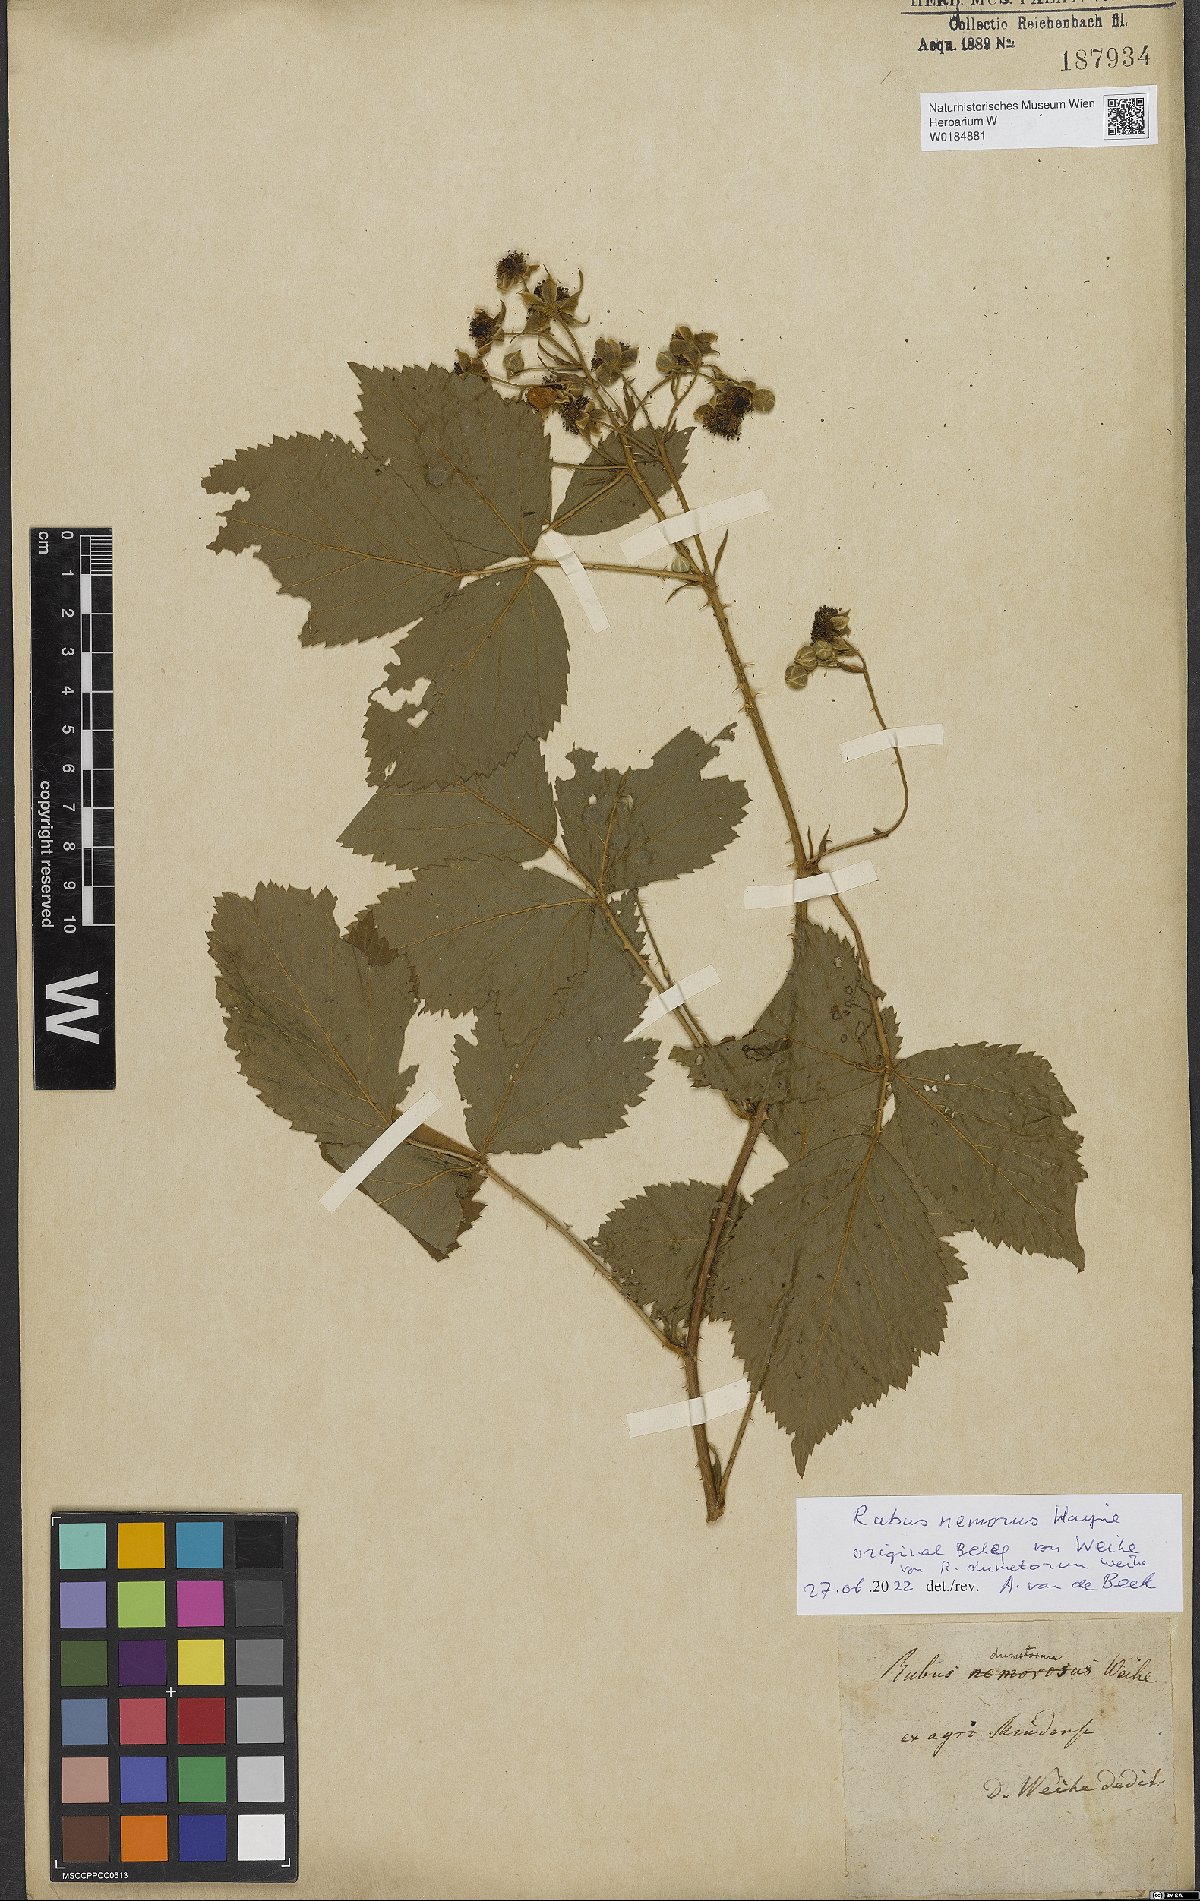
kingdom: Plantae
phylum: Tracheophyta
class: Magnoliopsida
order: Rosales
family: Rosaceae
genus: Rubus
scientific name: Rubus nemorosus
